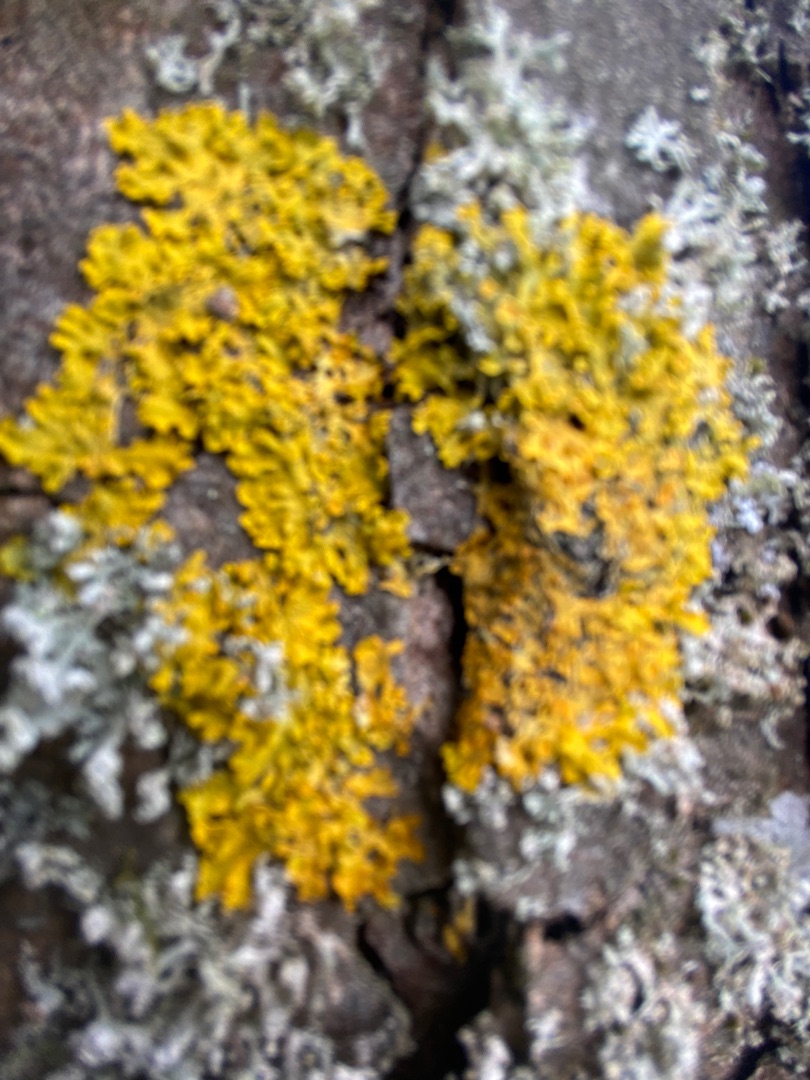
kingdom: Fungi
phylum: Ascomycota
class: Lecanoromycetes
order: Teloschistales
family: Teloschistaceae
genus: Xanthoria
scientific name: Xanthoria parietina
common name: Almindelig væggelav
